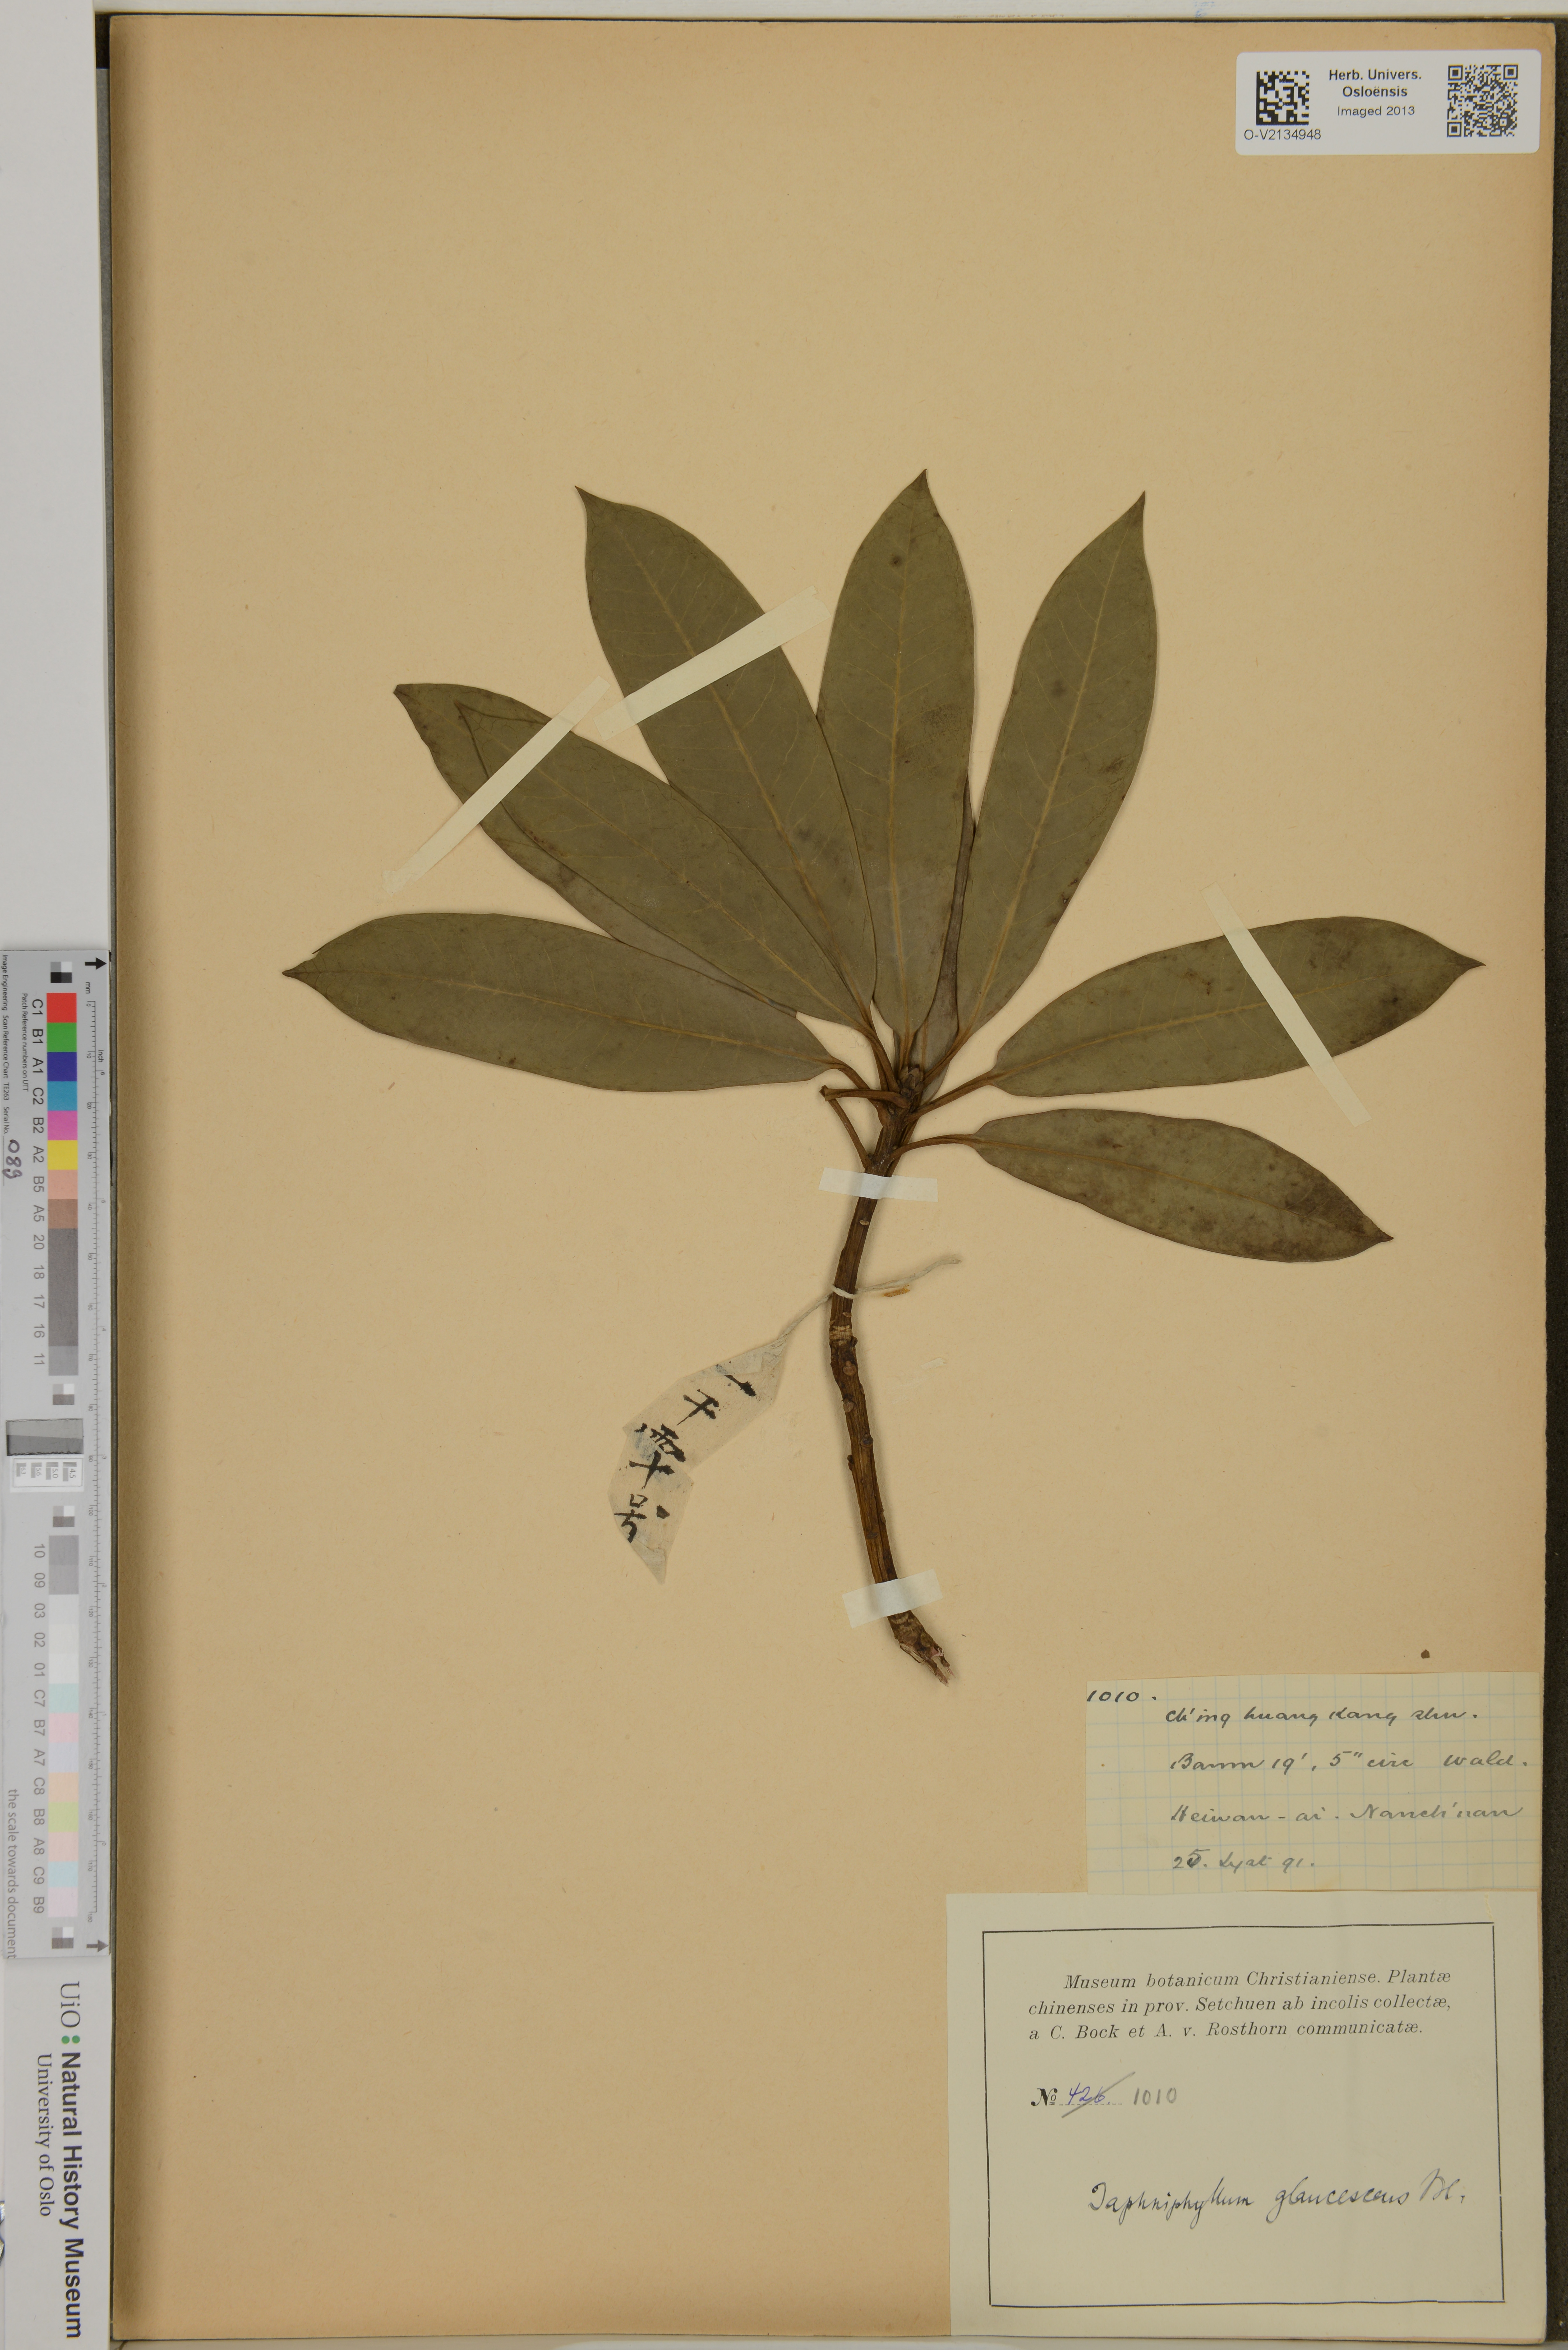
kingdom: Plantae
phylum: Tracheophyta
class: Magnoliopsida
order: Saxifragales
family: Daphniphyllaceae
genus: Daphniphyllum
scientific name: Daphniphyllum glaucescens
